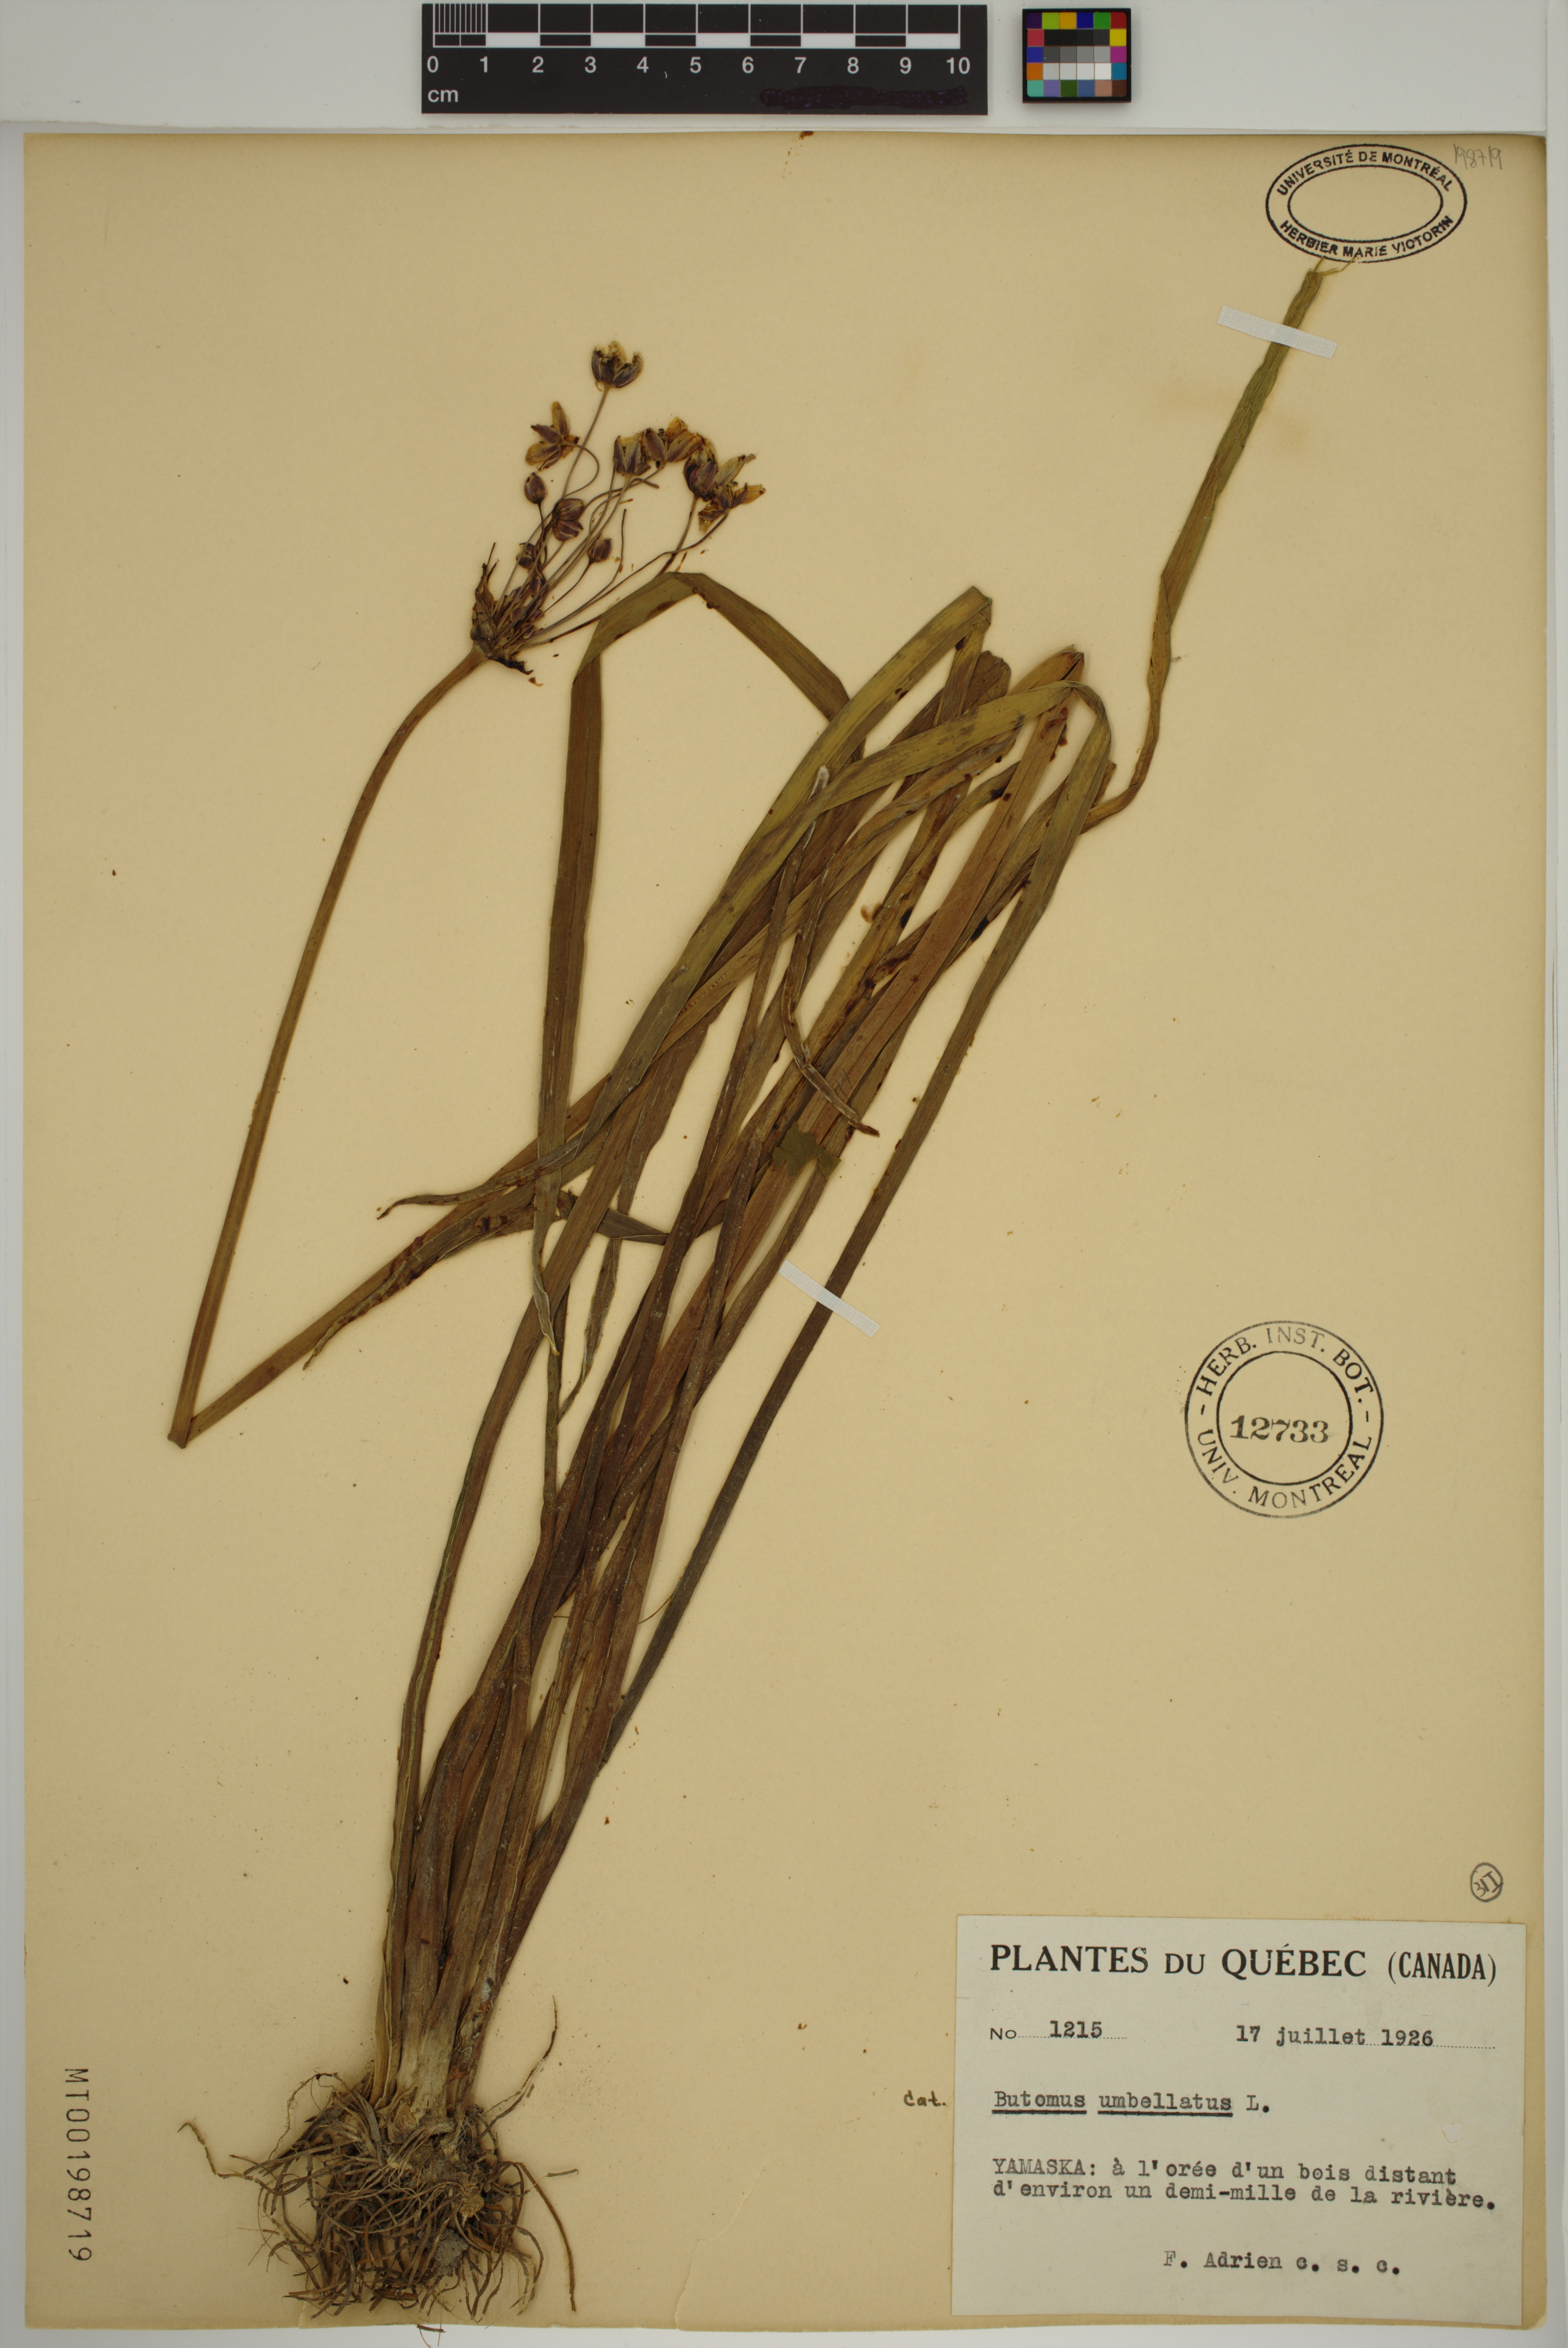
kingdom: Plantae
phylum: Tracheophyta
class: Liliopsida
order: Alismatales
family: Butomaceae
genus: Butomus
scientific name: Butomus umbellatus
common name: Flowering-rush
